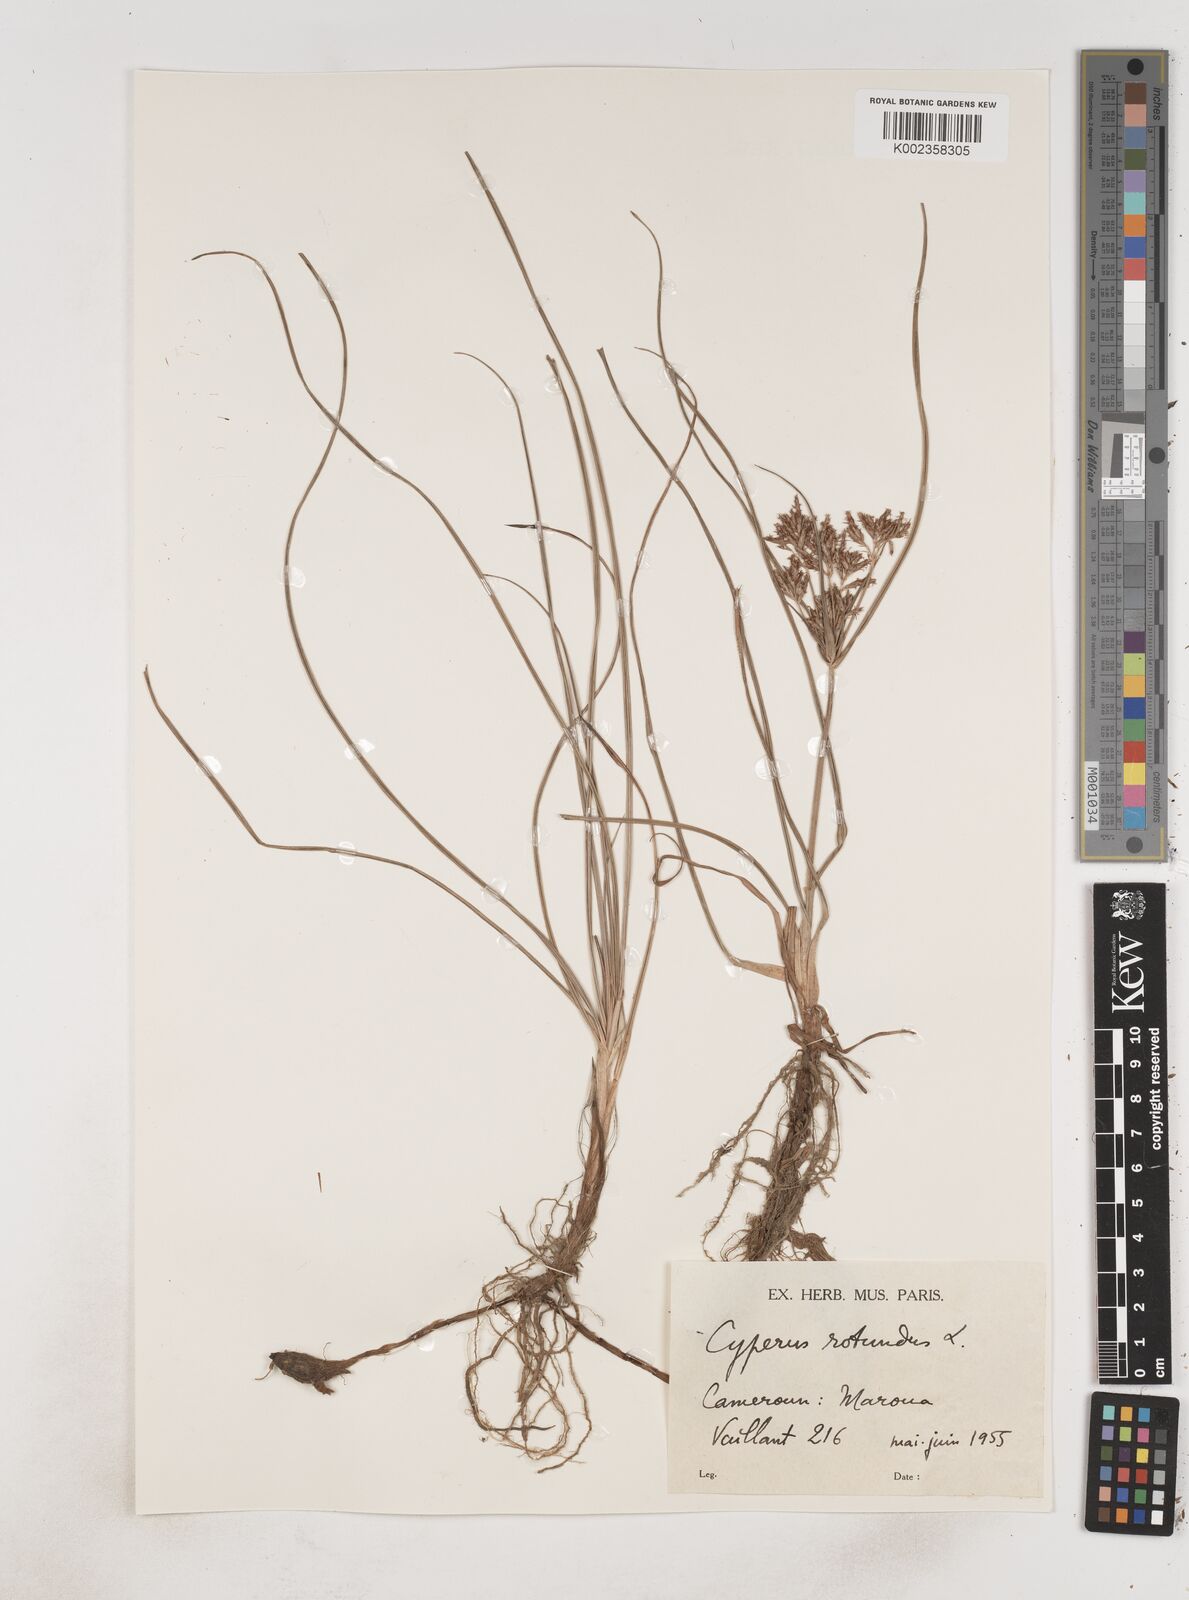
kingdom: Plantae
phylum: Tracheophyta
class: Liliopsida
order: Poales
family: Cyperaceae
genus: Cyperus
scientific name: Cyperus rotundus
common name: Nutgrass
